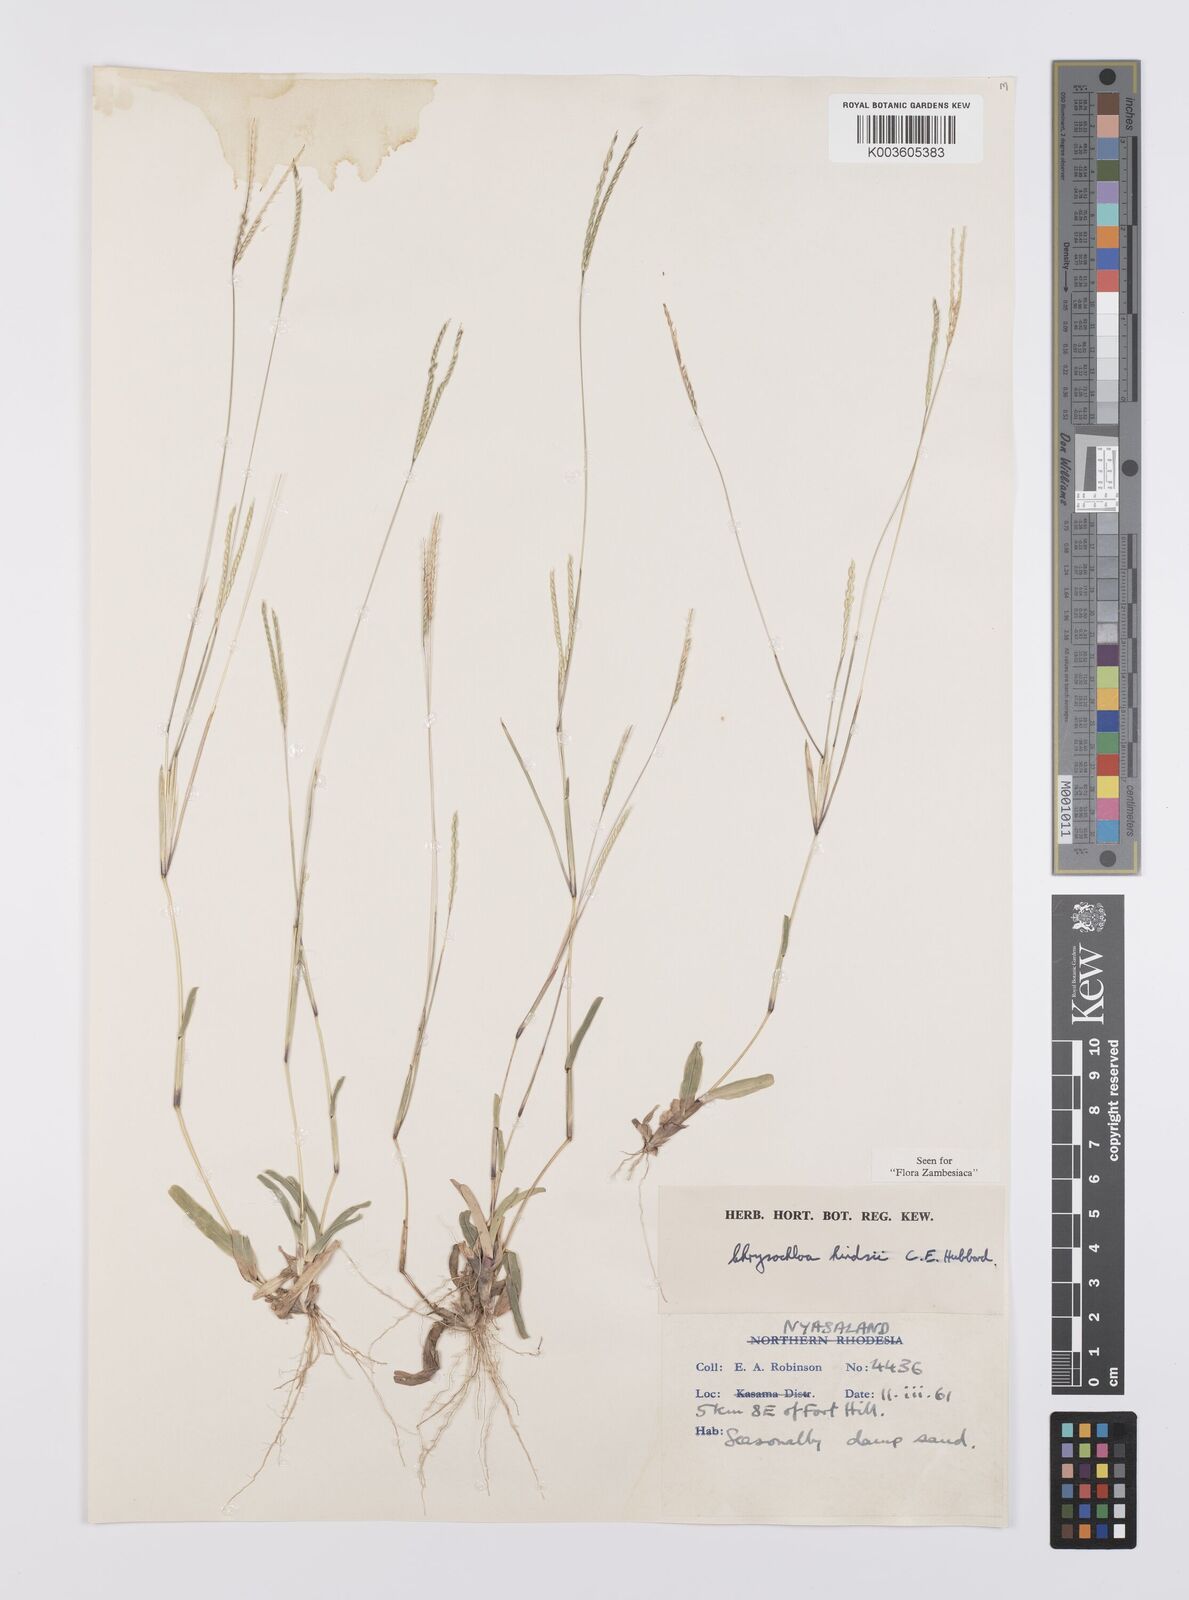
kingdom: Plantae
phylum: Tracheophyta
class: Liliopsida
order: Poales
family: Poaceae
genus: Chrysochloa
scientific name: Chrysochloa hindsii
